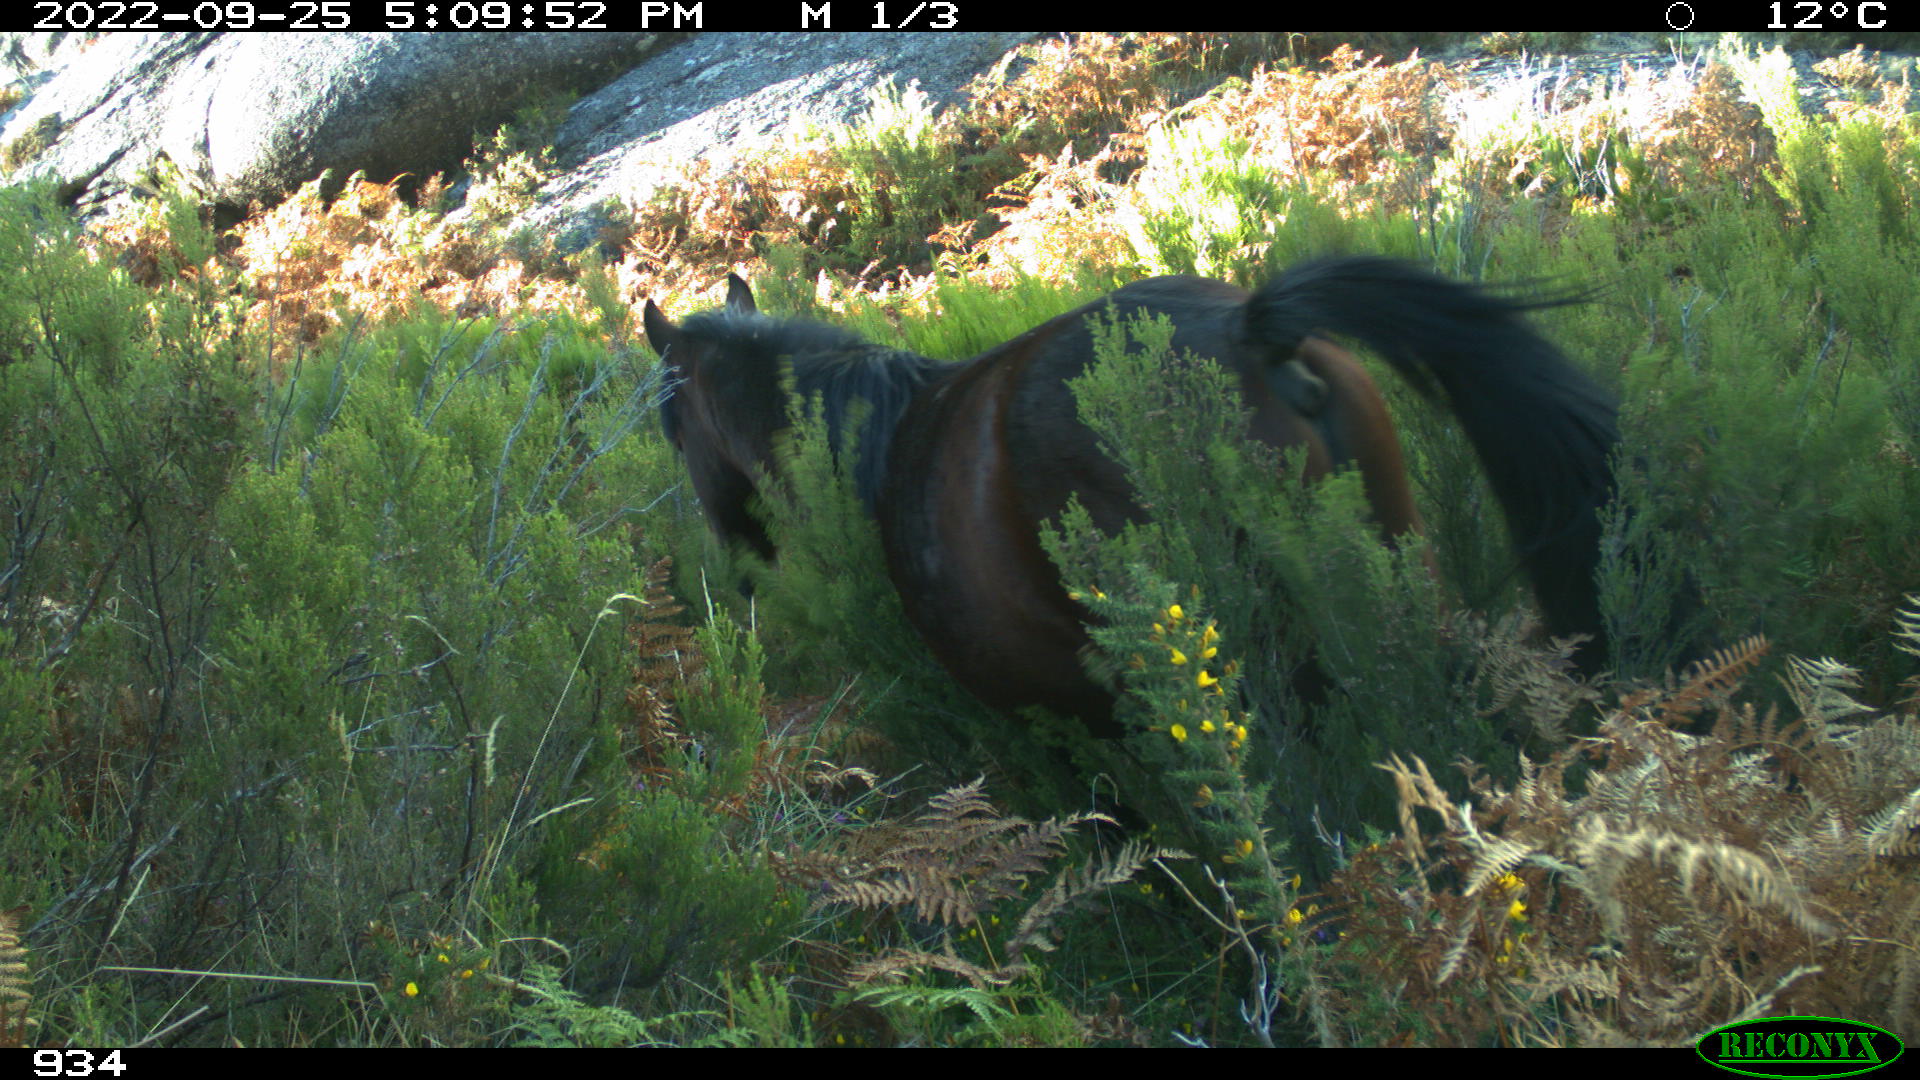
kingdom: Animalia
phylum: Chordata
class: Mammalia
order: Perissodactyla
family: Equidae
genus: Equus
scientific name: Equus caballus
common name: Horse
